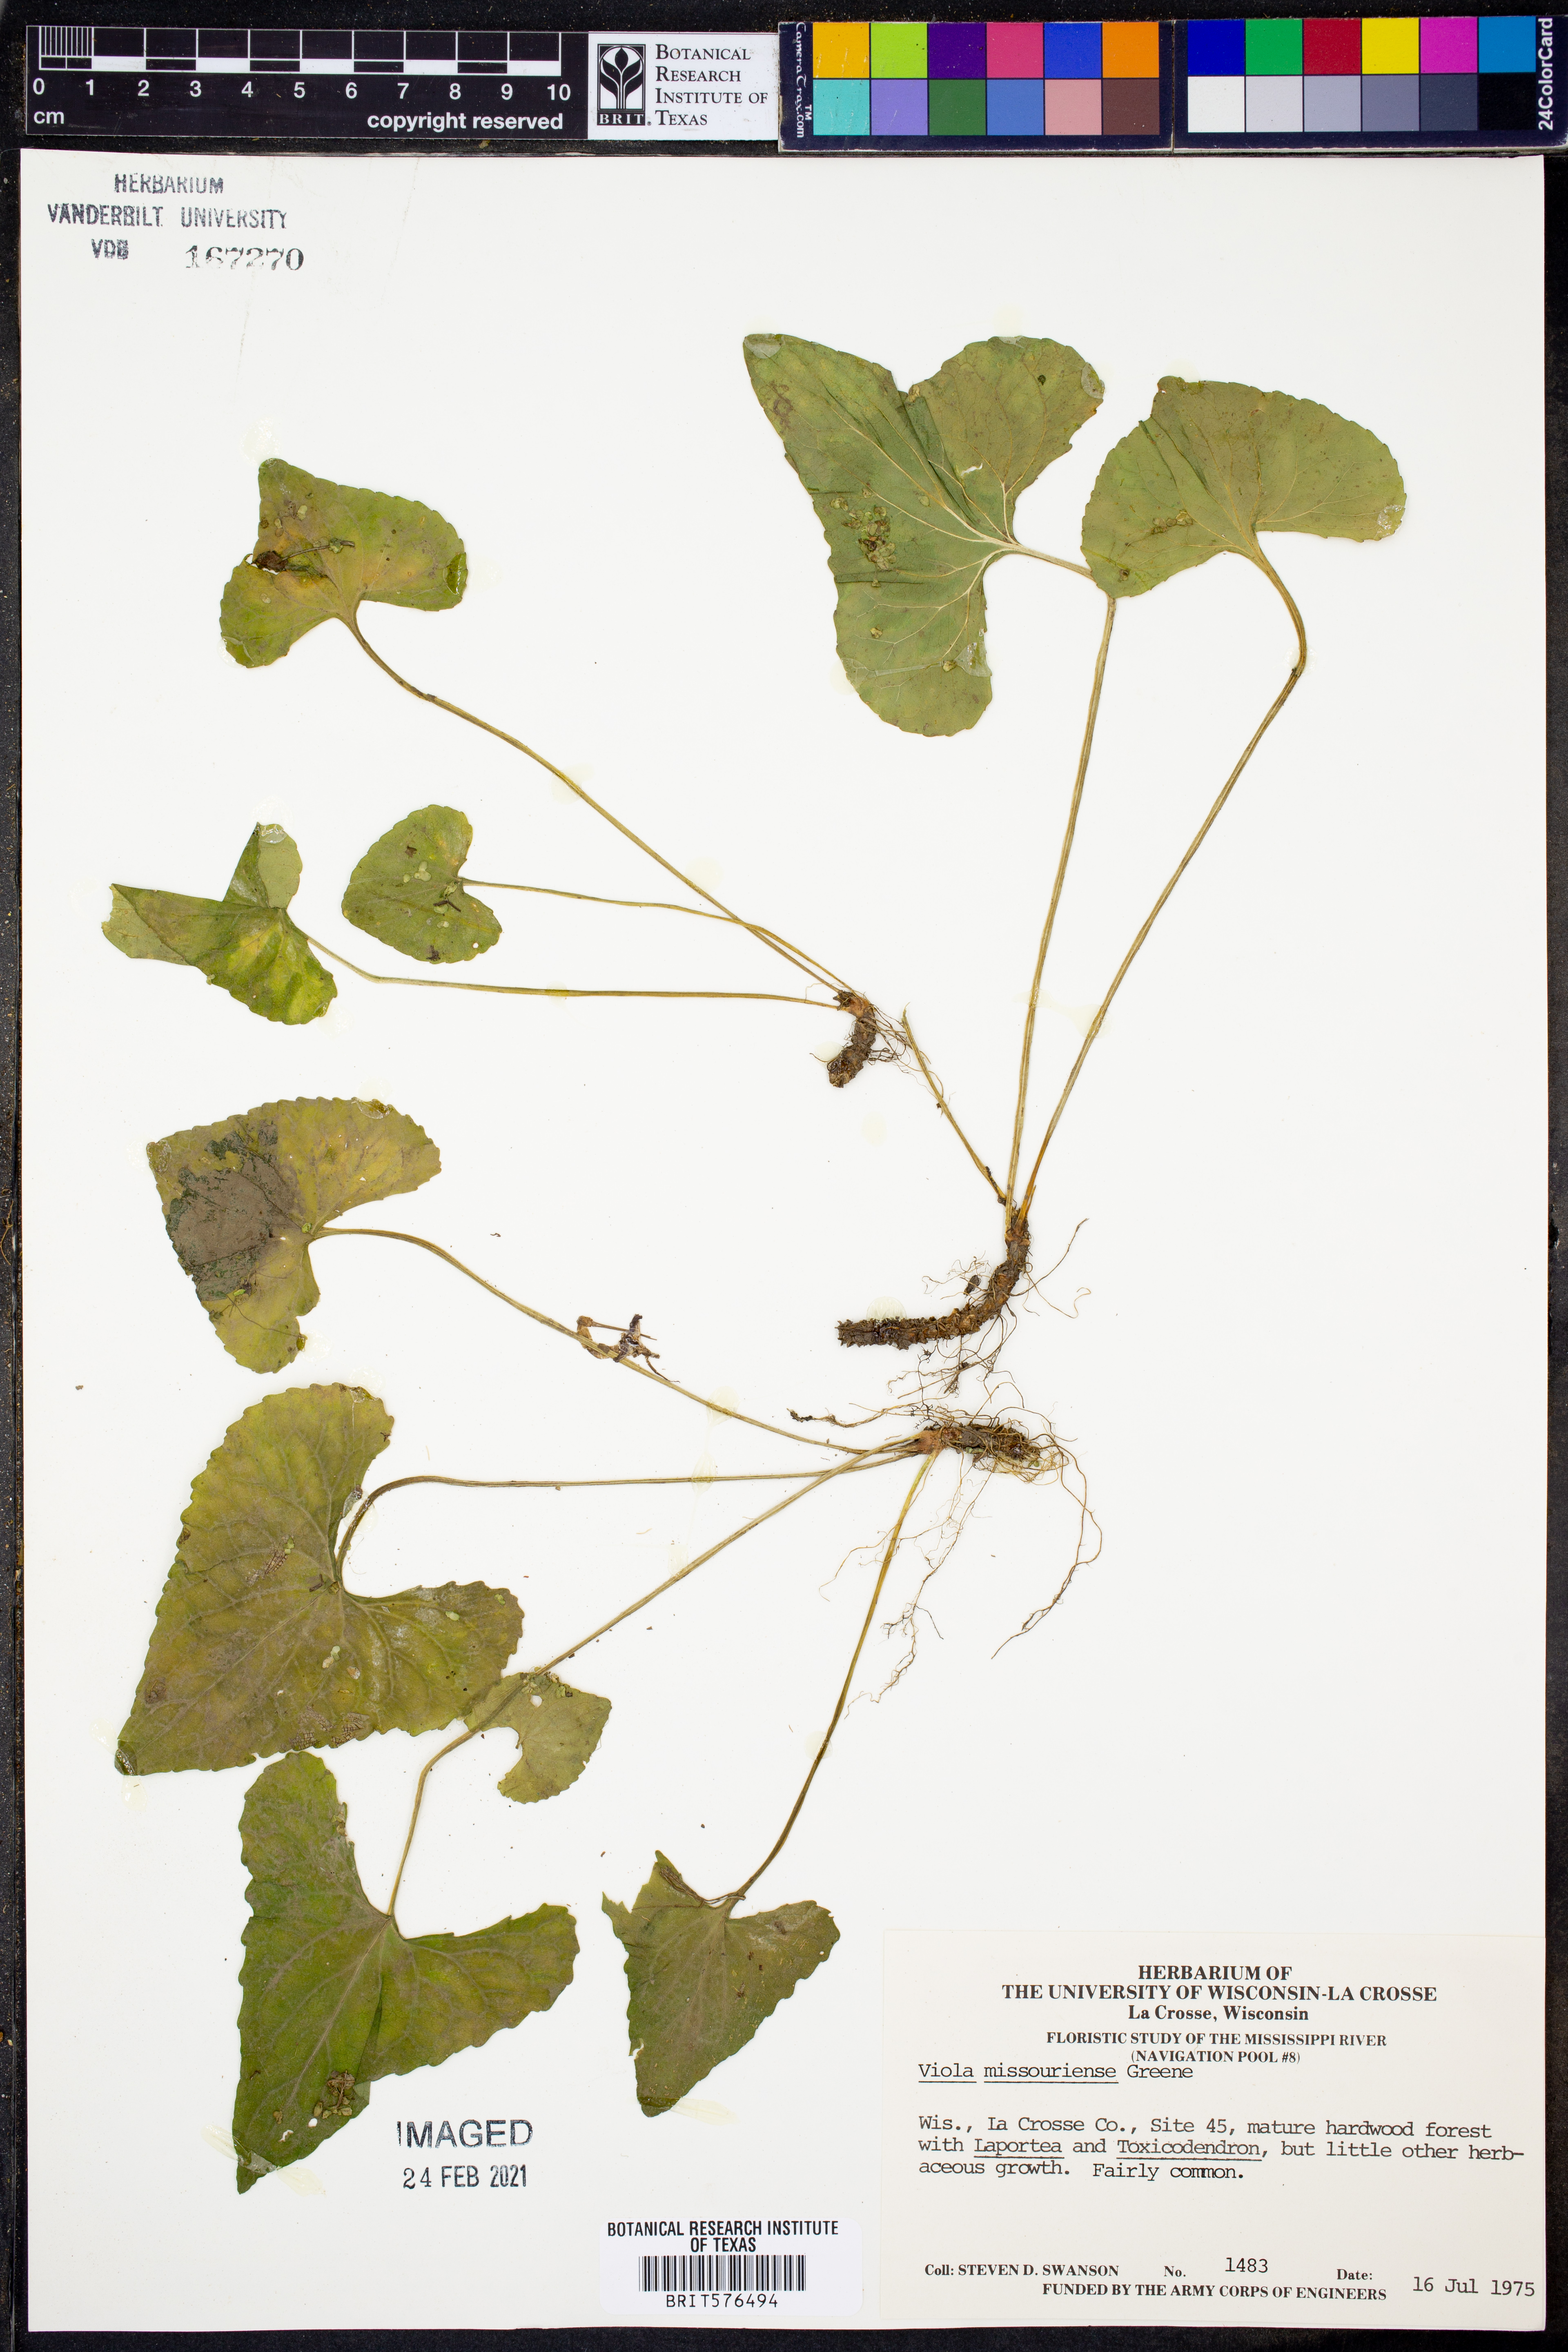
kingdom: Plantae
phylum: Tracheophyta
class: Magnoliopsida
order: Malpighiales
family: Violaceae
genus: Viola
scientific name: Viola missouriensis
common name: Missouri violet
